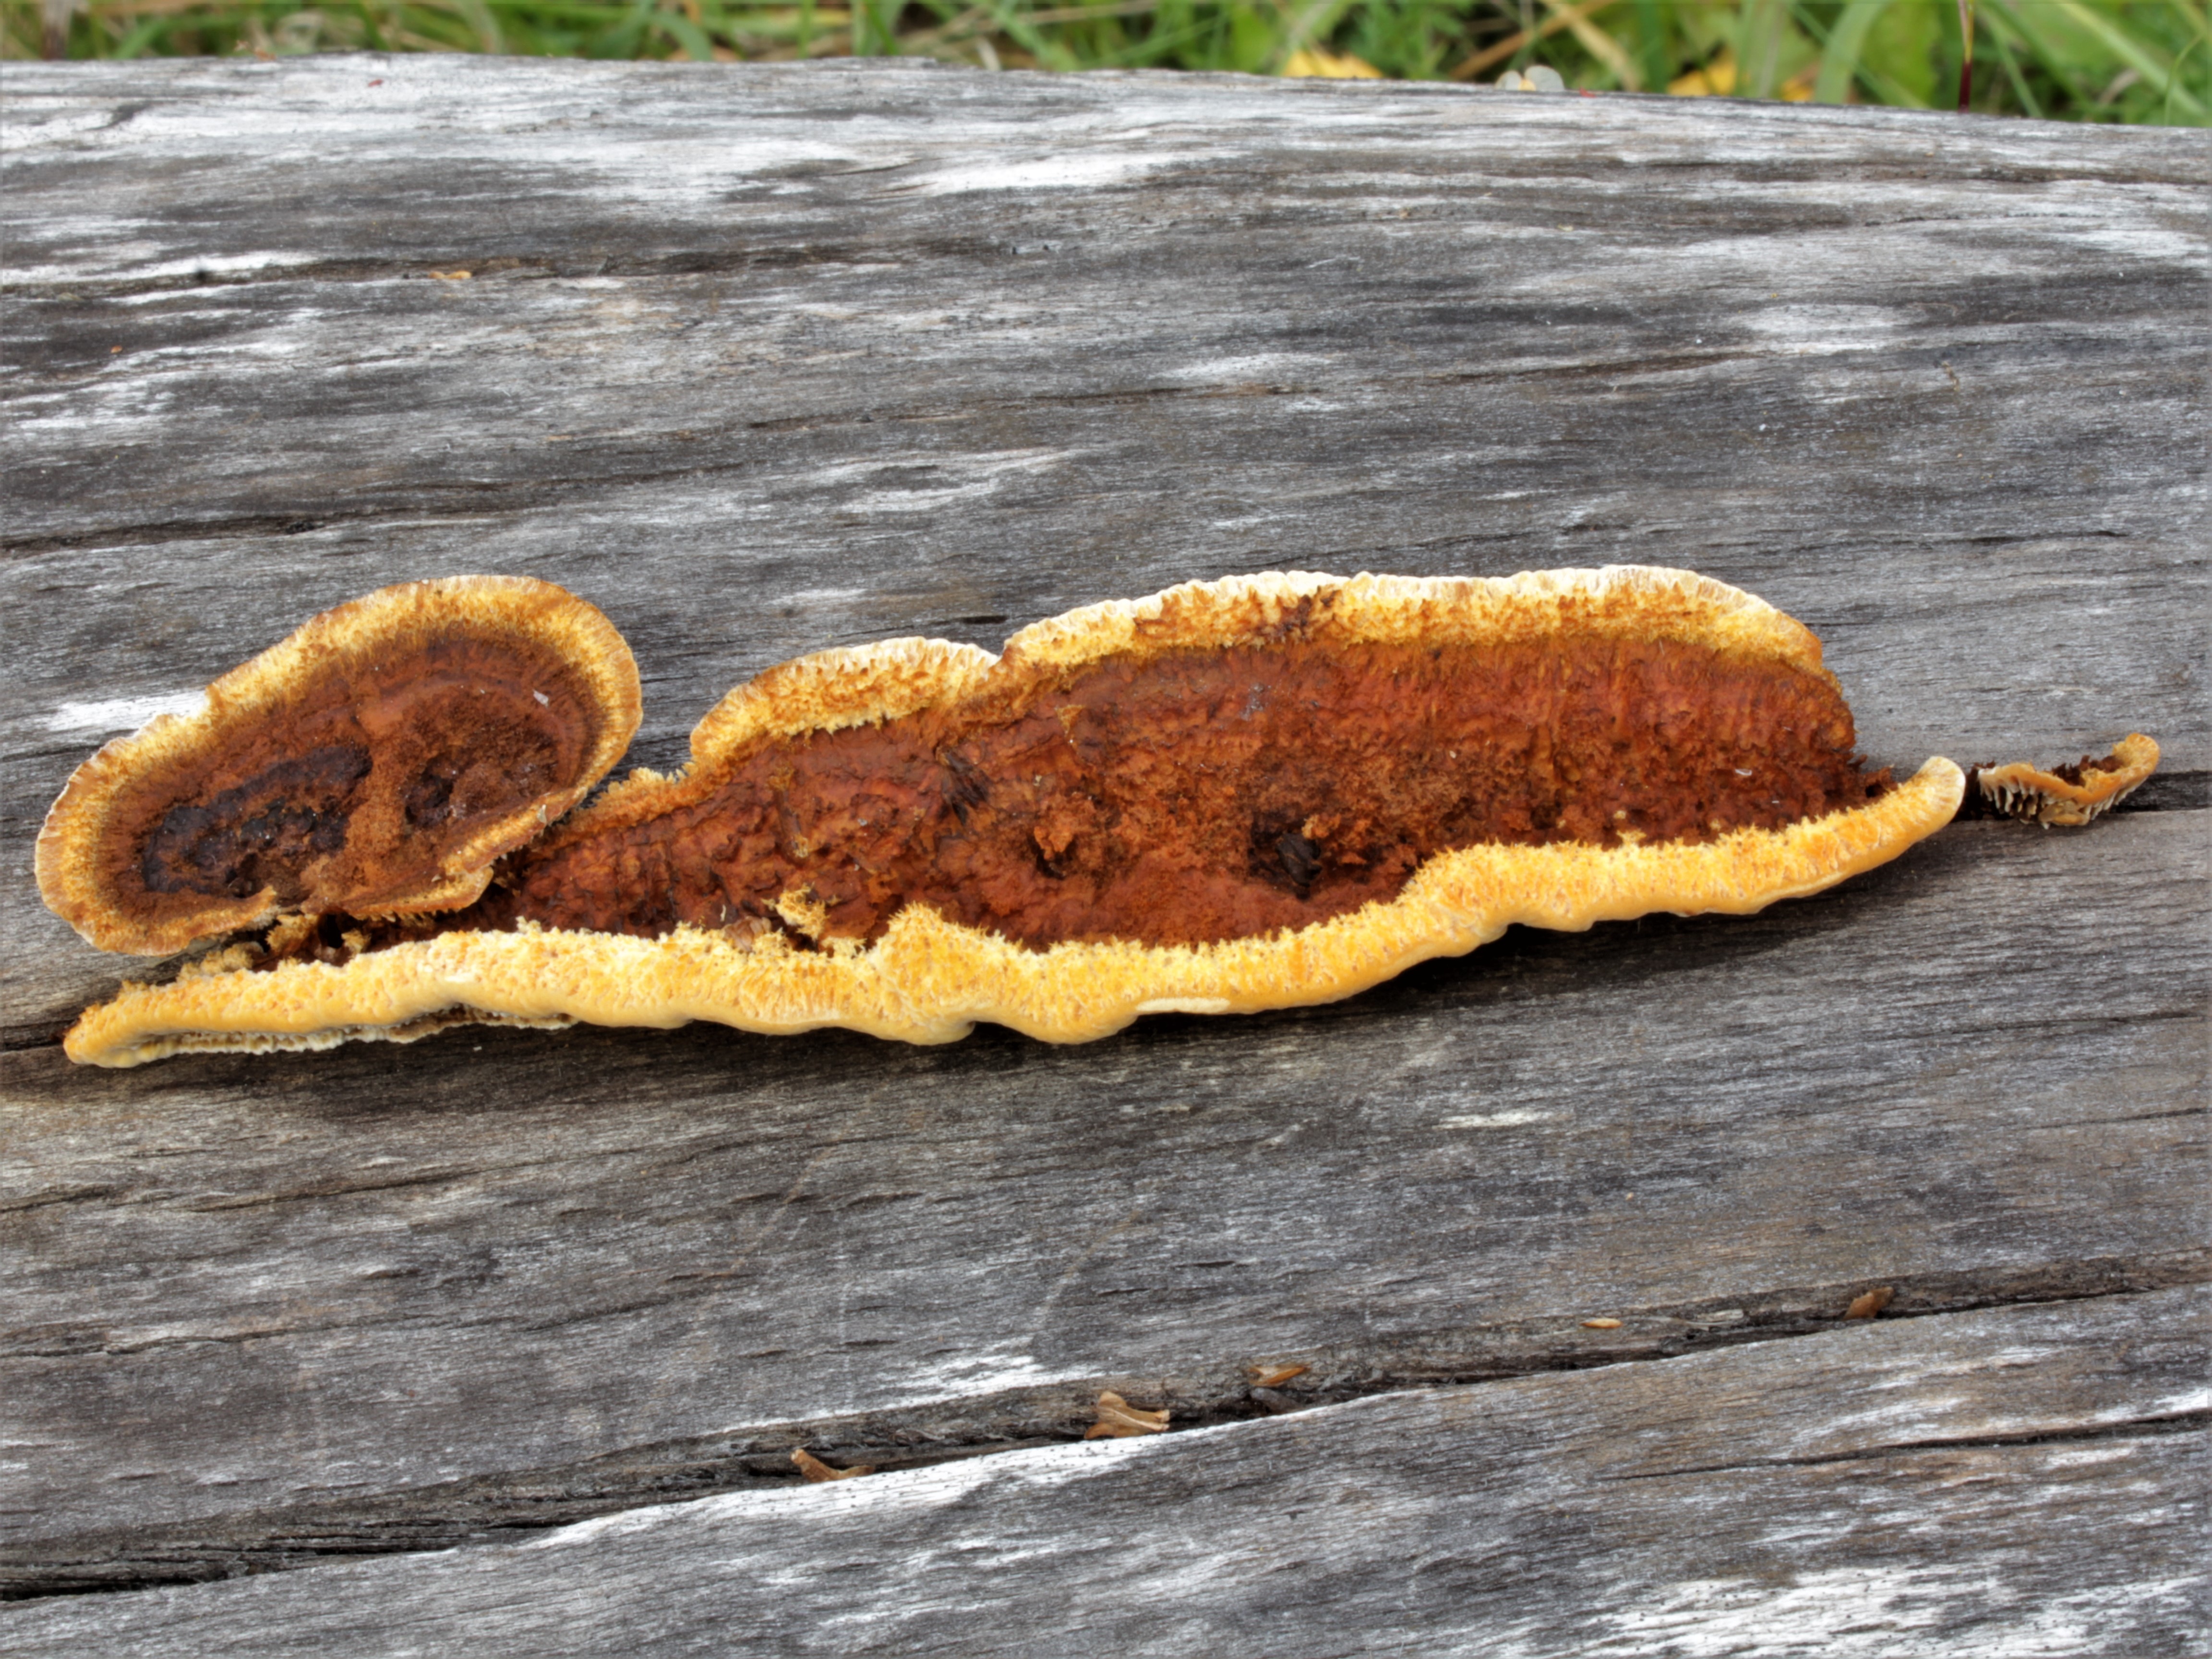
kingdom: Fungi
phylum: Basidiomycota
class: Agaricomycetes
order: Gloeophyllales
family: Gloeophyllaceae
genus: Gloeophyllum
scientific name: Gloeophyllum sepiarium
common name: Conifer mazegill
